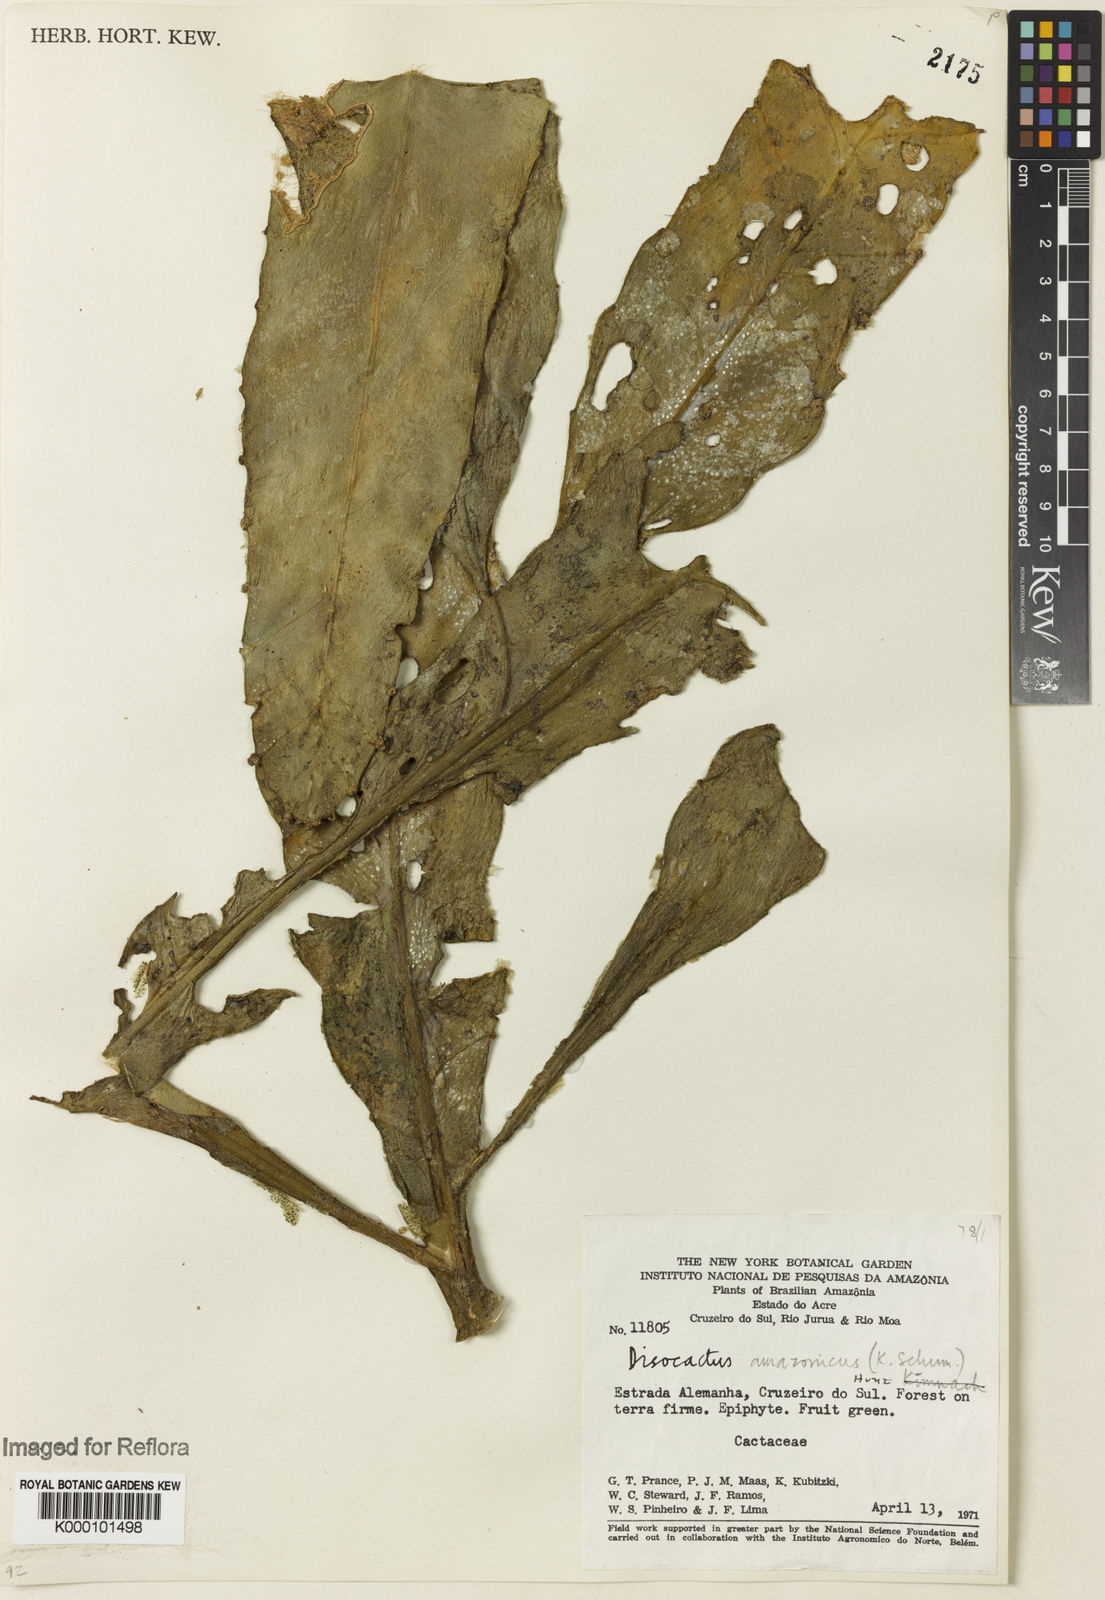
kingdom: Plantae
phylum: Tracheophyta
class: Magnoliopsida
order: Caryophyllales
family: Cactaceae
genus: Pseudorhipsalis
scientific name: Pseudorhipsalis amazonica
